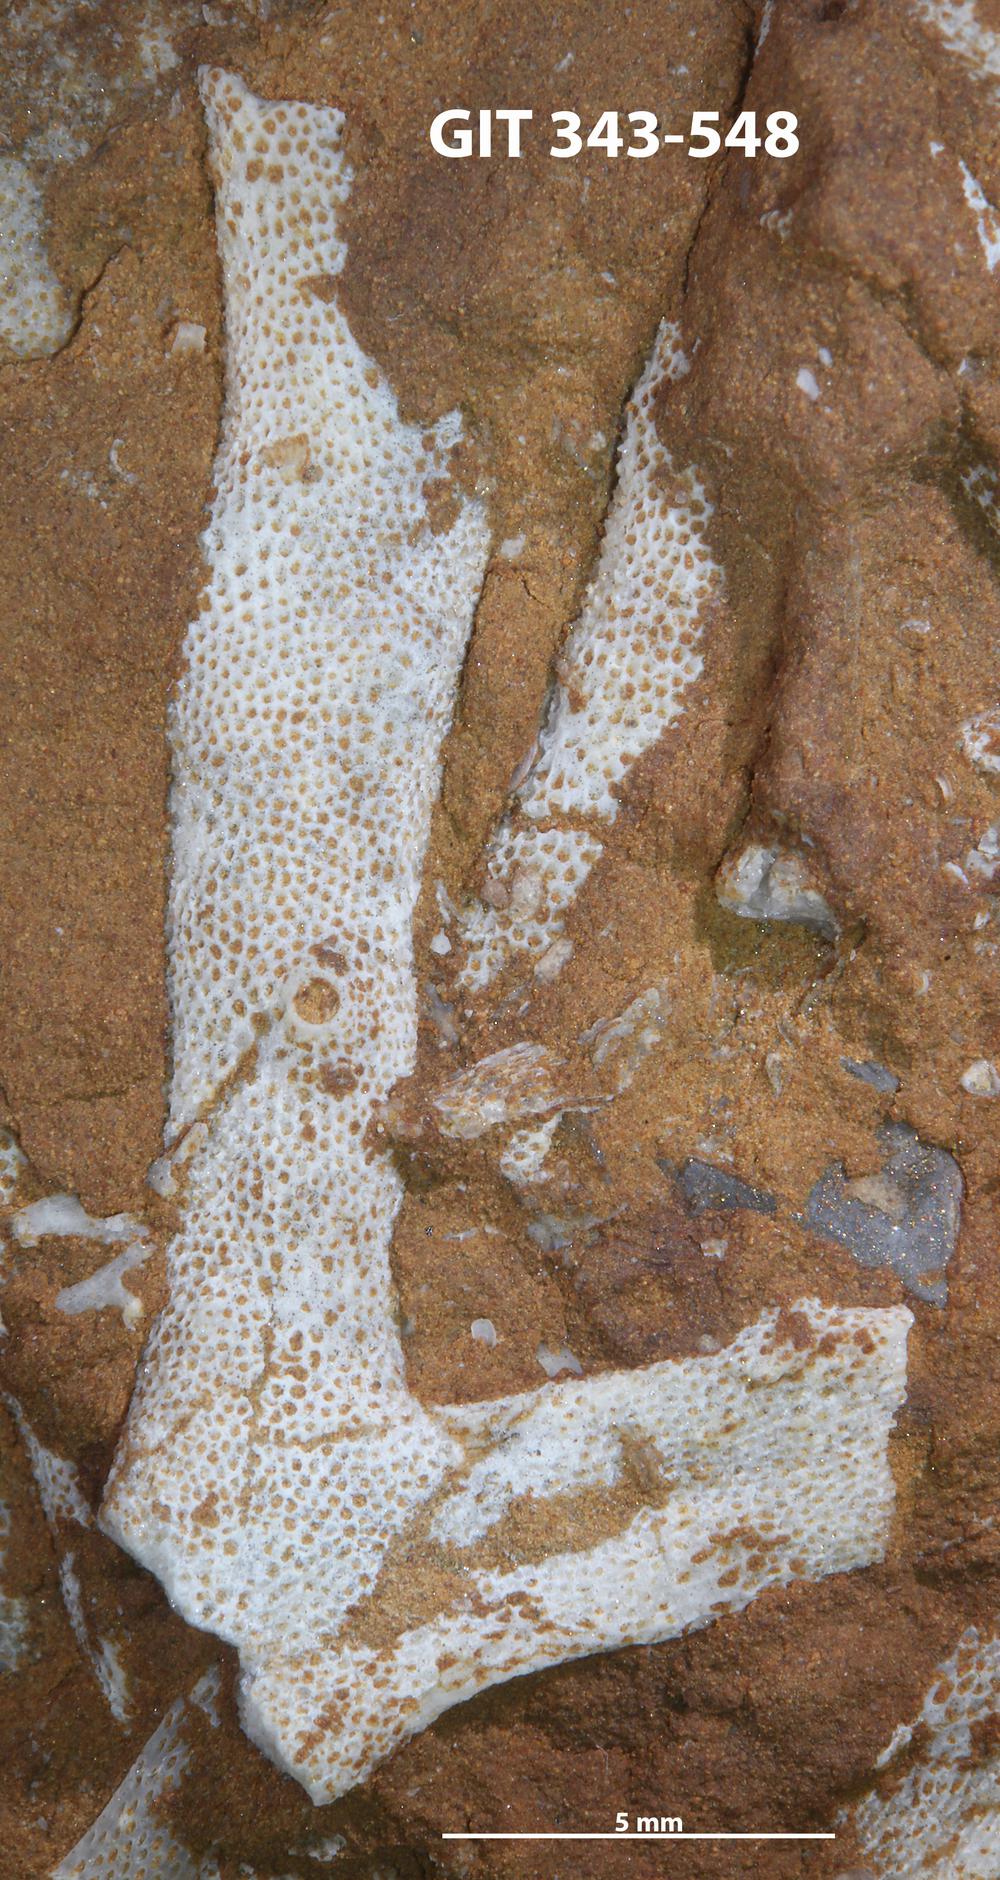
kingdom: Animalia
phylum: Bryozoa
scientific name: Bryozoa
